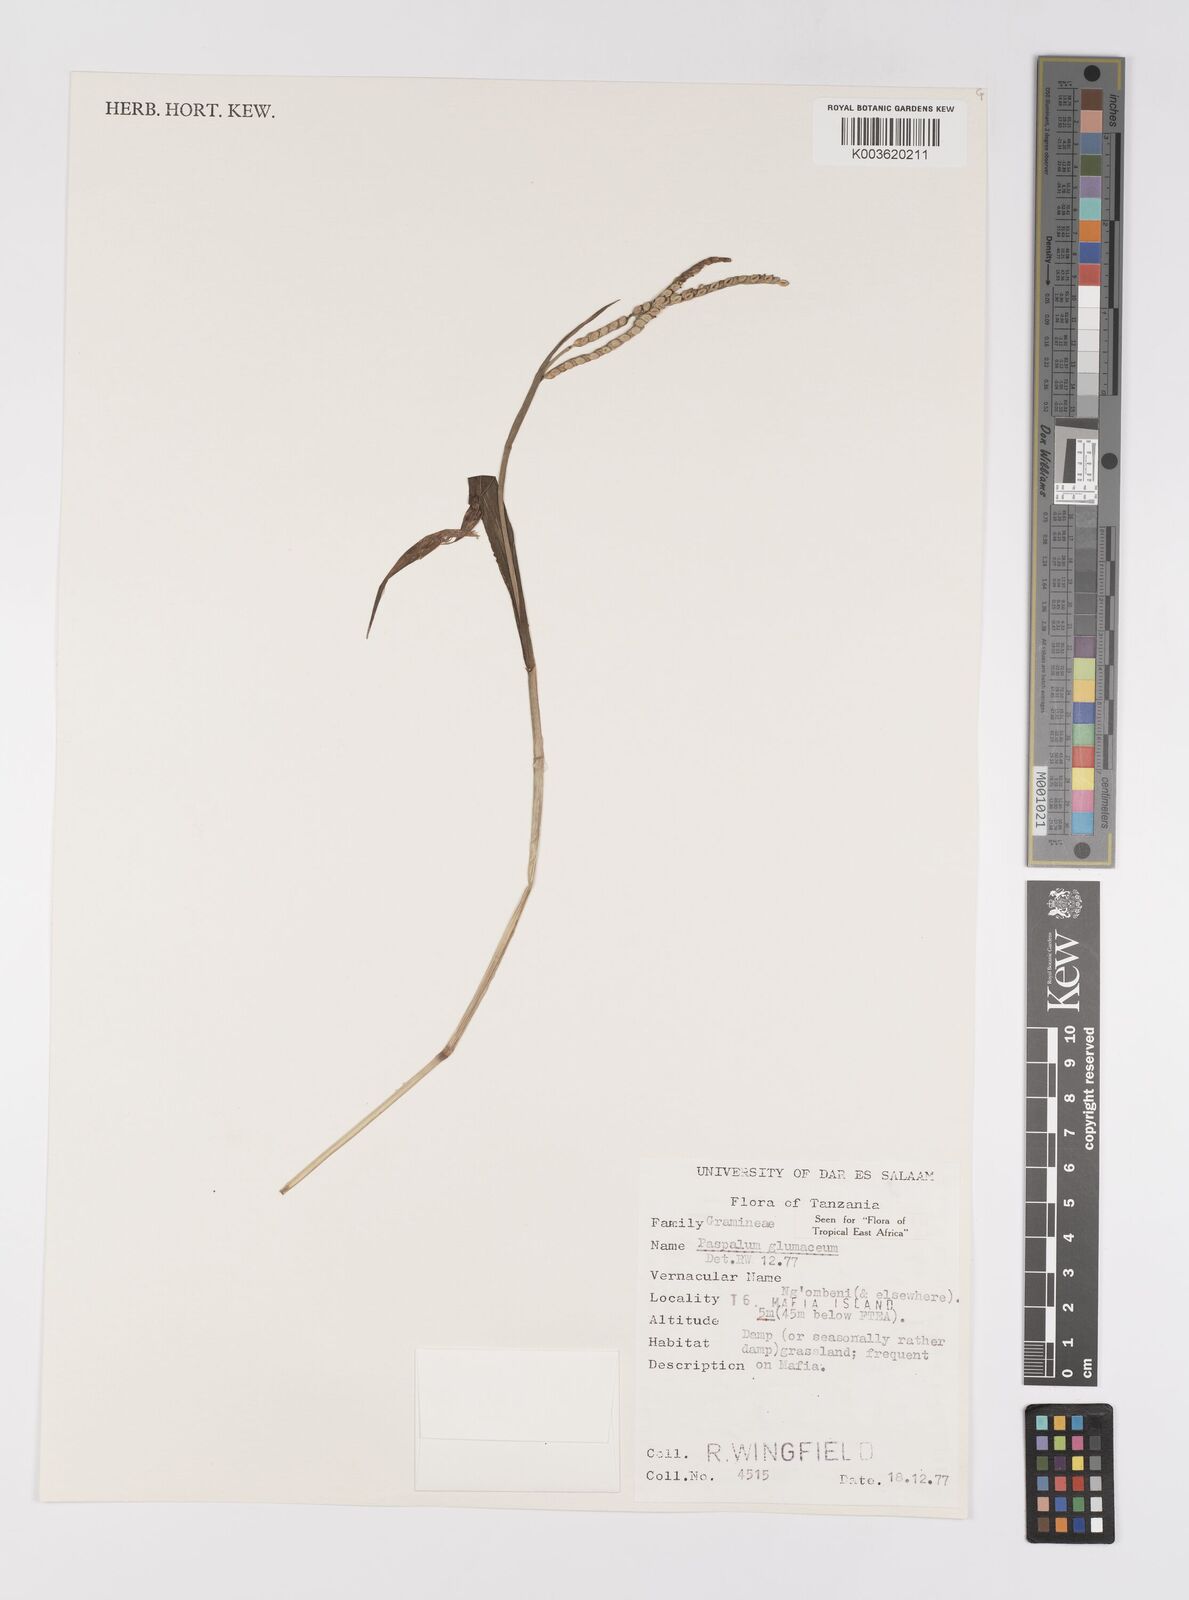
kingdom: Plantae
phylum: Tracheophyta
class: Liliopsida
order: Poales
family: Poaceae
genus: Paspalum
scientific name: Paspalum glumaceum
